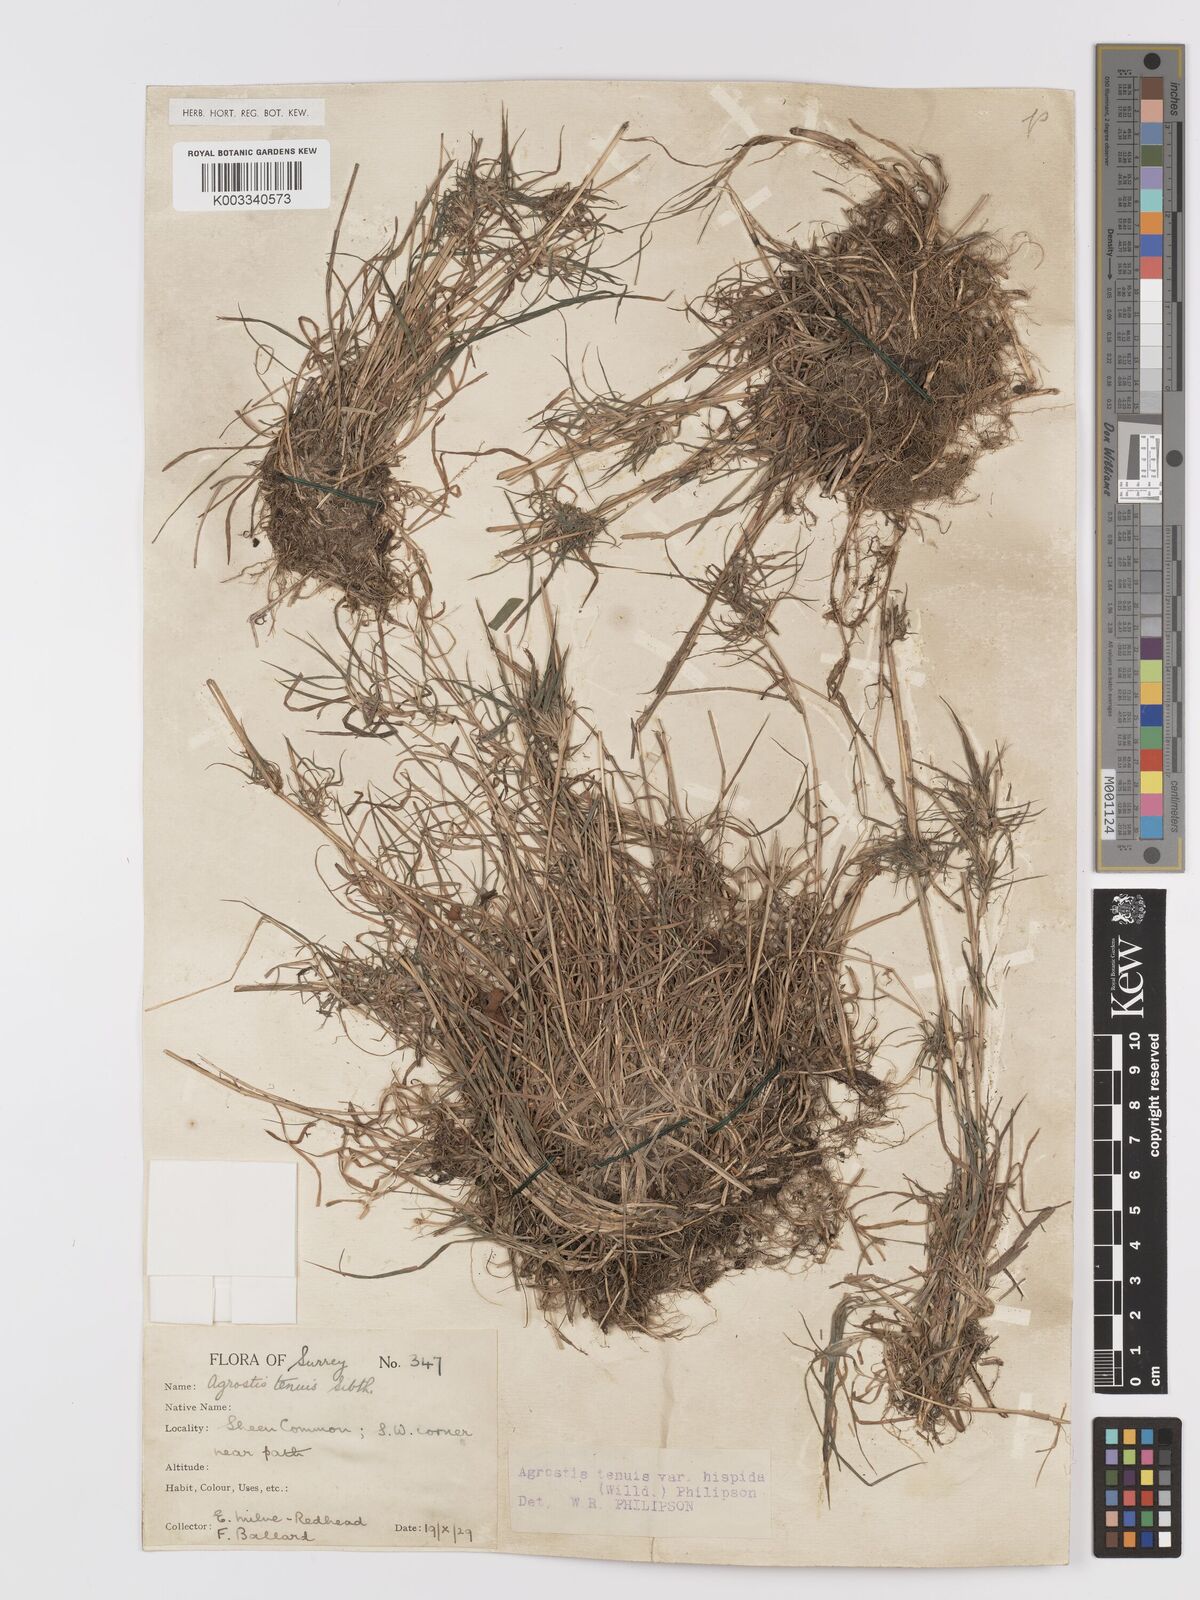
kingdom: Plantae
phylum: Tracheophyta
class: Liliopsida
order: Poales
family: Poaceae
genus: Agrostis
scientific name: Agrostis capillaris
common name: Colonial bentgrass
